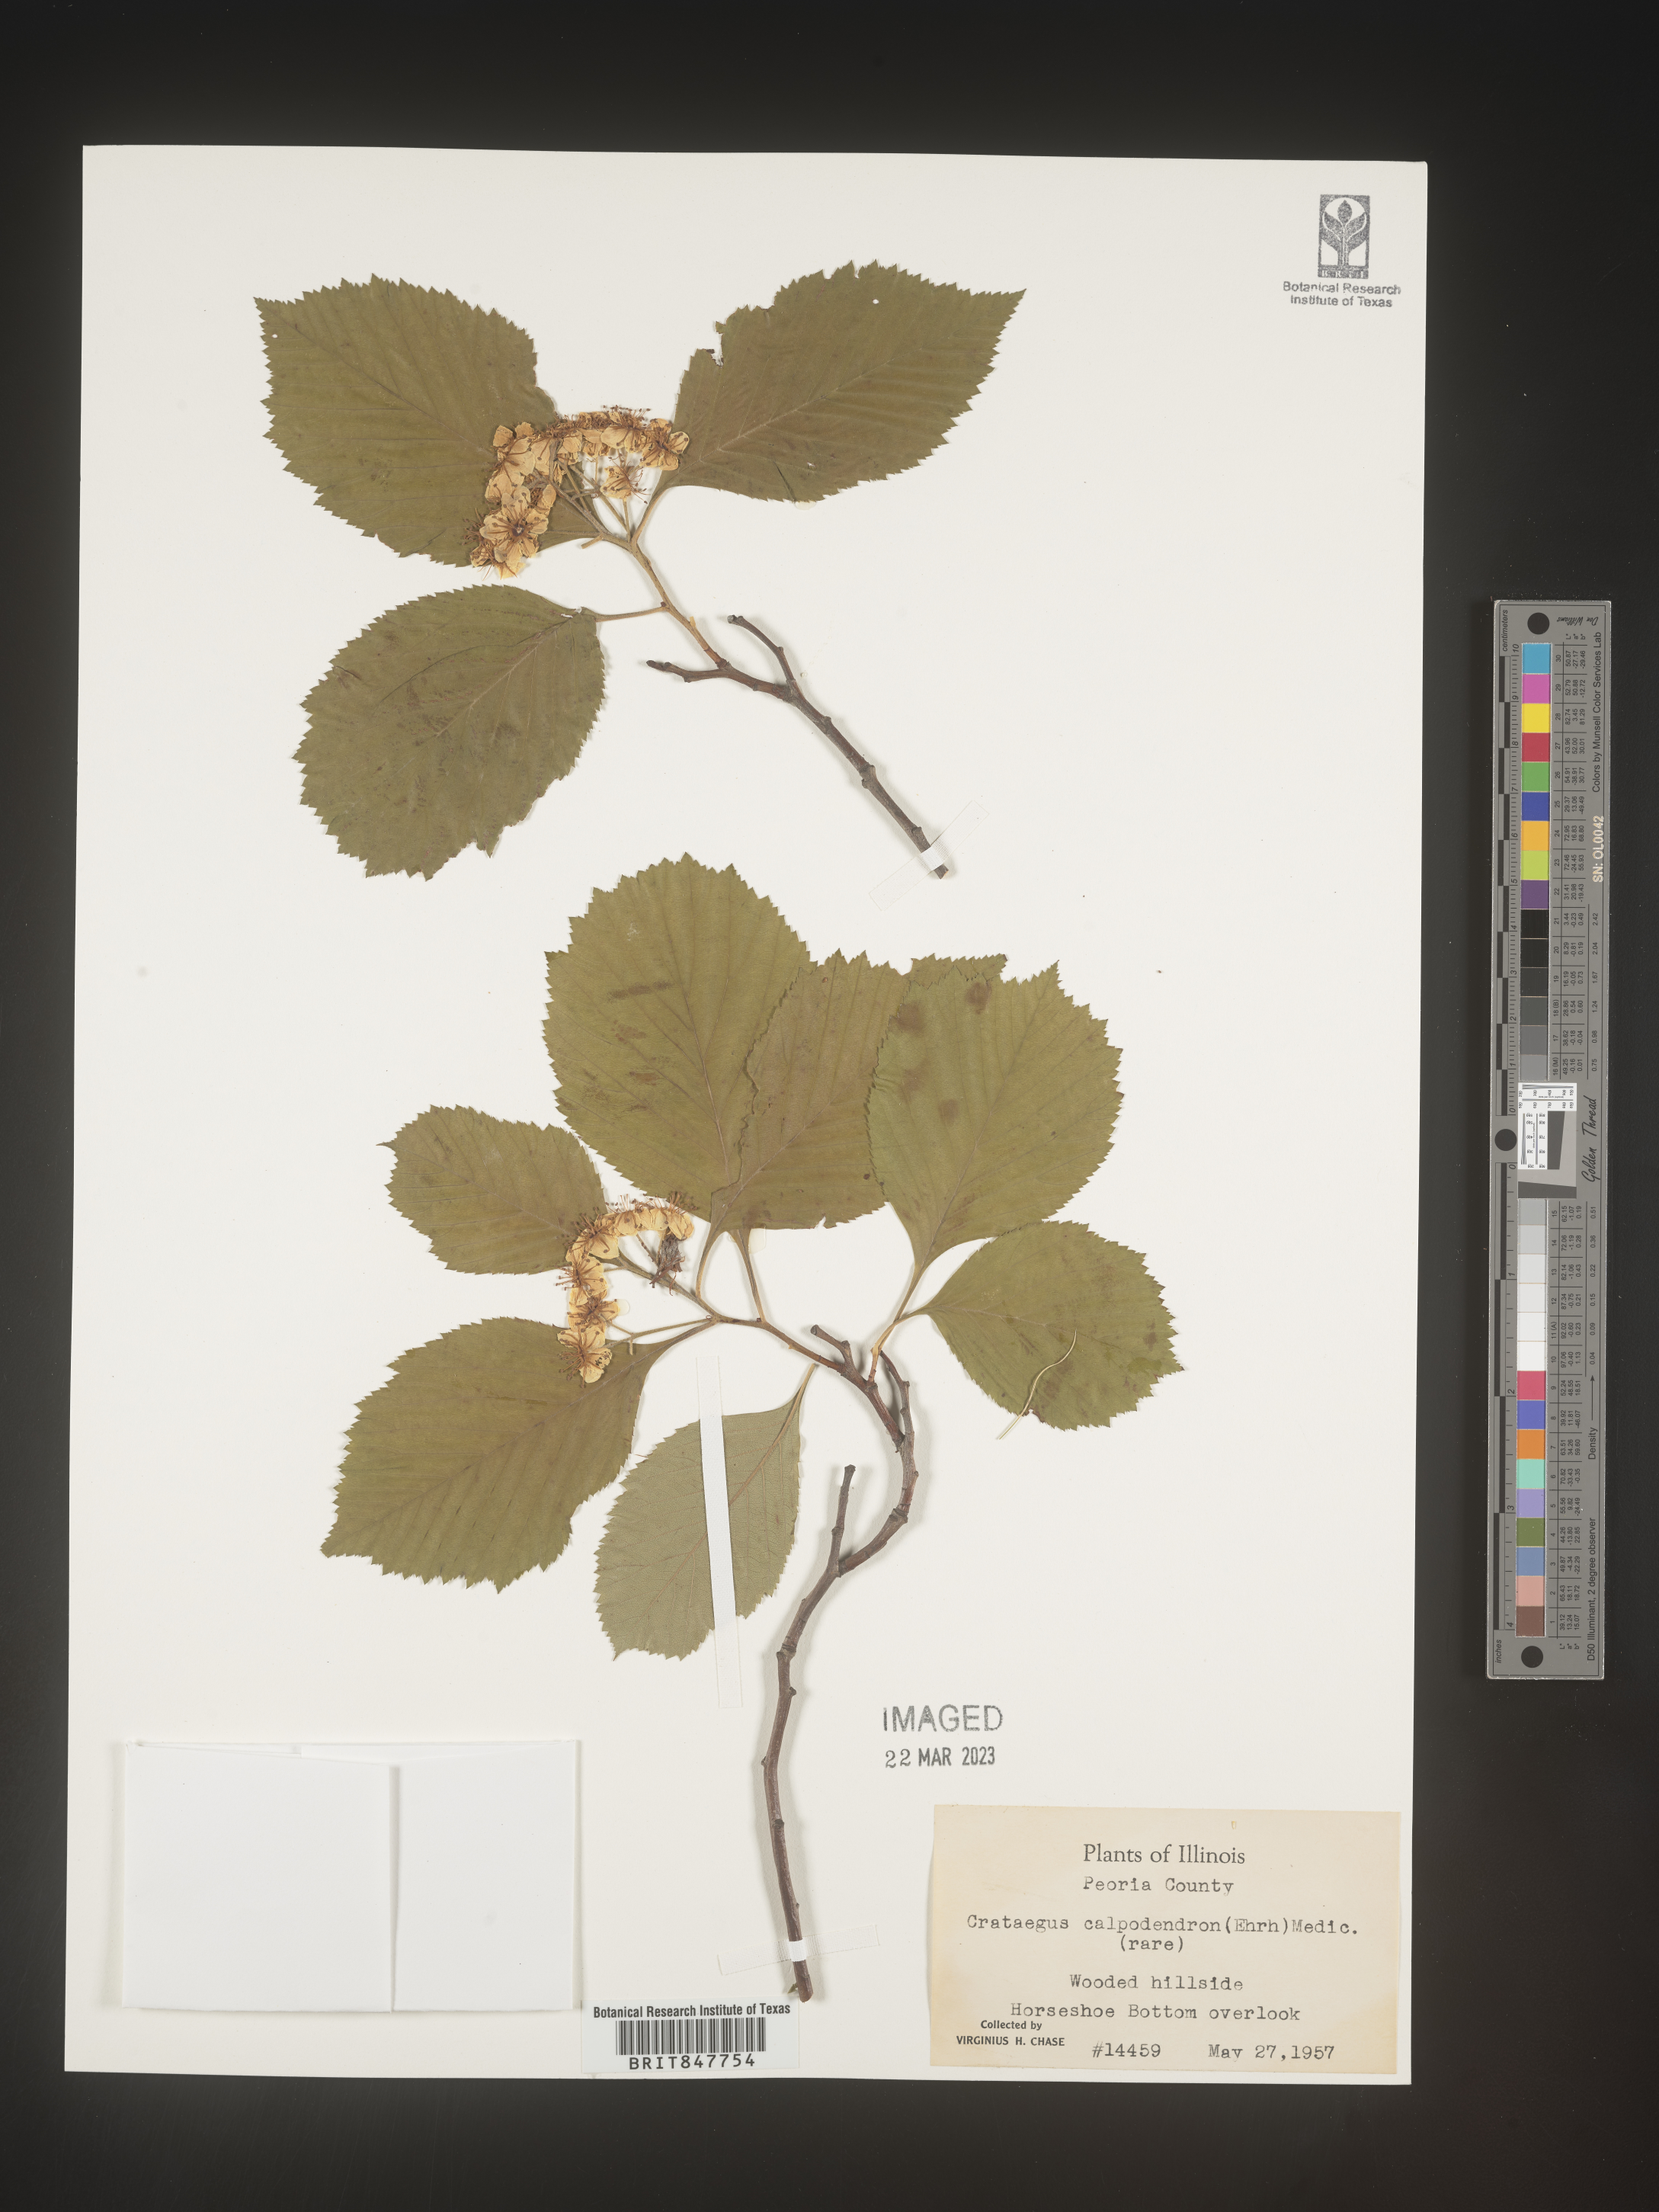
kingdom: Plantae
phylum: Tracheophyta
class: Magnoliopsida
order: Rosales
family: Rosaceae
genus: Crataegus
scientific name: Crataegus calpodendron
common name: Pear hawthorn
